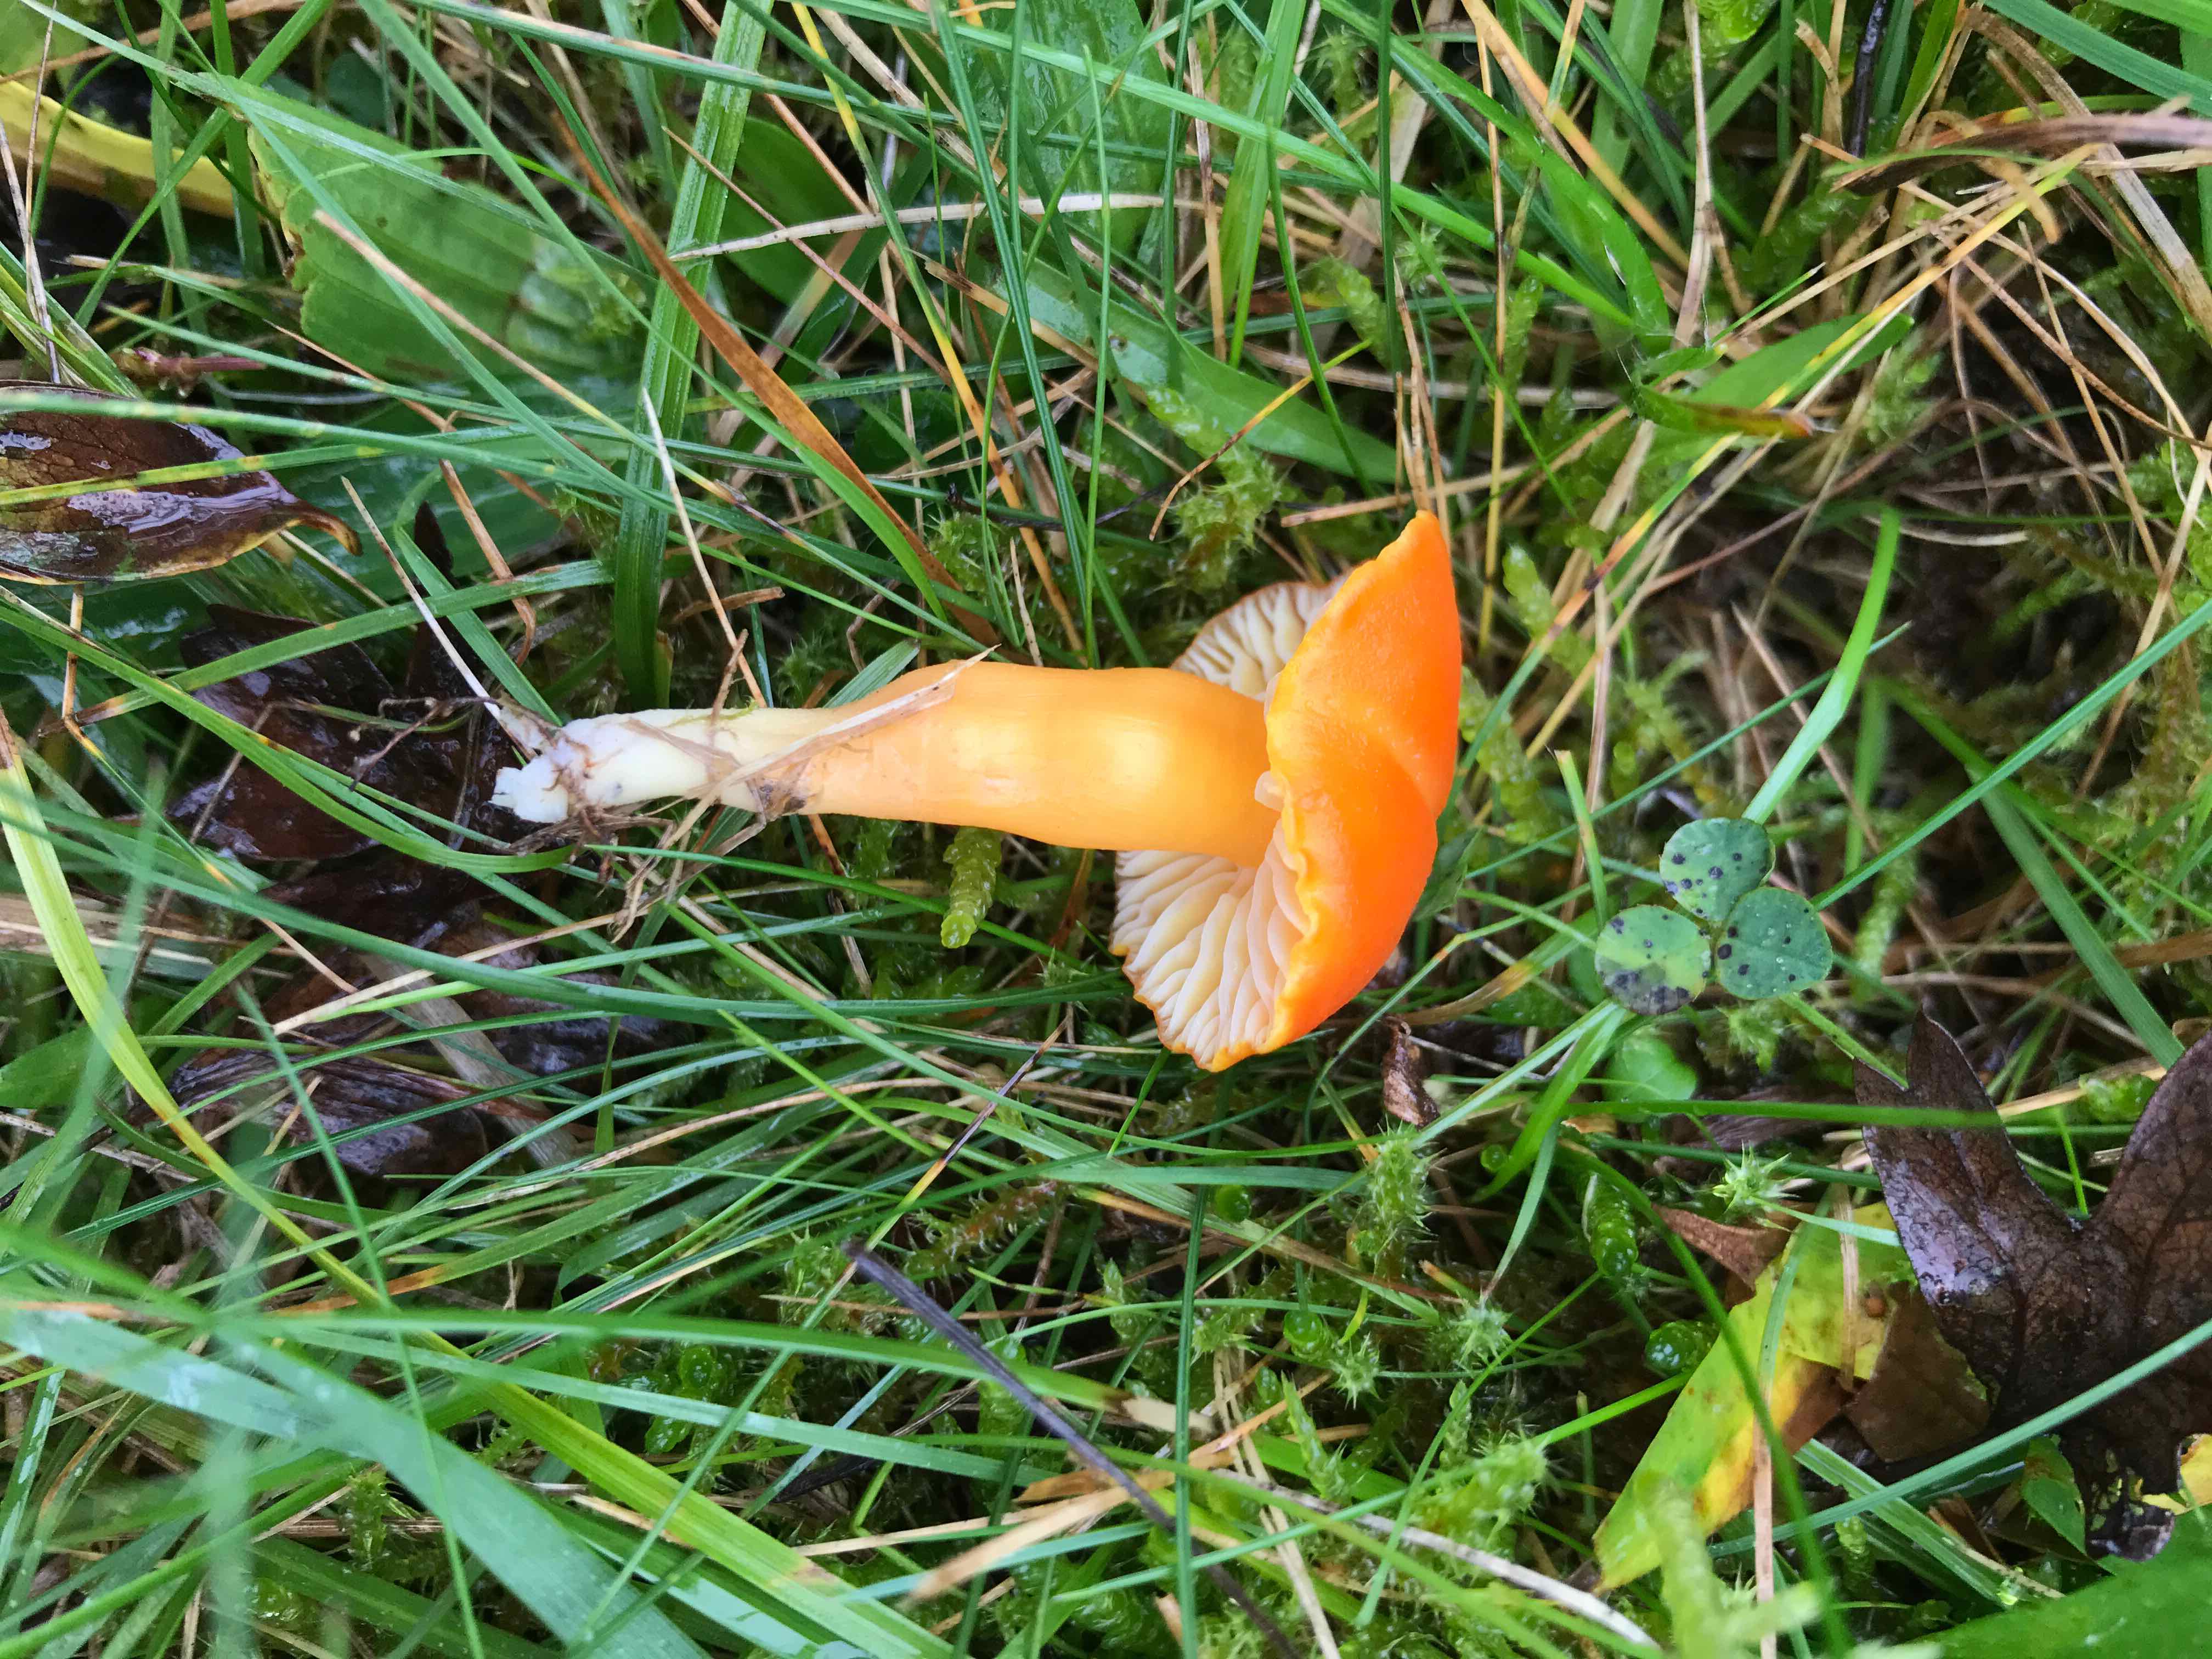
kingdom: Fungi
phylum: Basidiomycota
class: Agaricomycetes
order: Agaricales
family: Hygrophoraceae
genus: Hygrocybe
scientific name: Hygrocybe reidii
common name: honning-vokshat
